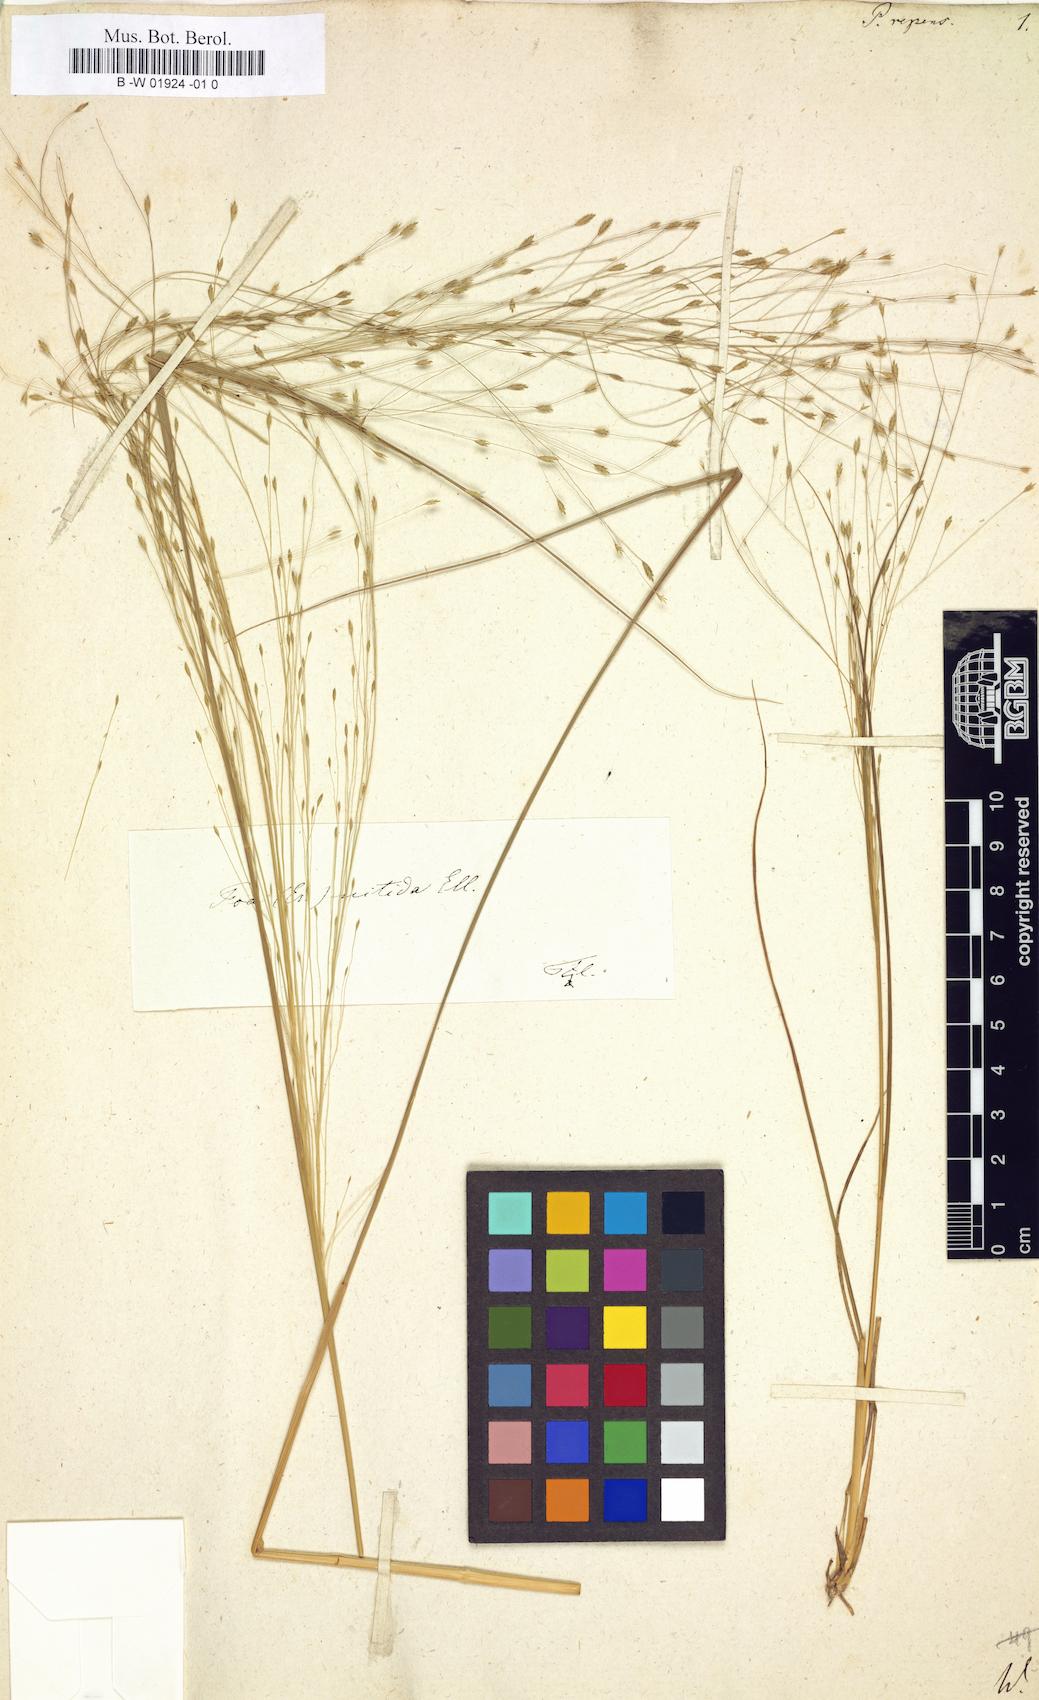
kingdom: Plantae
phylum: Tracheophyta
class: Liliopsida
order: Poales
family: Poaceae
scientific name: Poaceae
